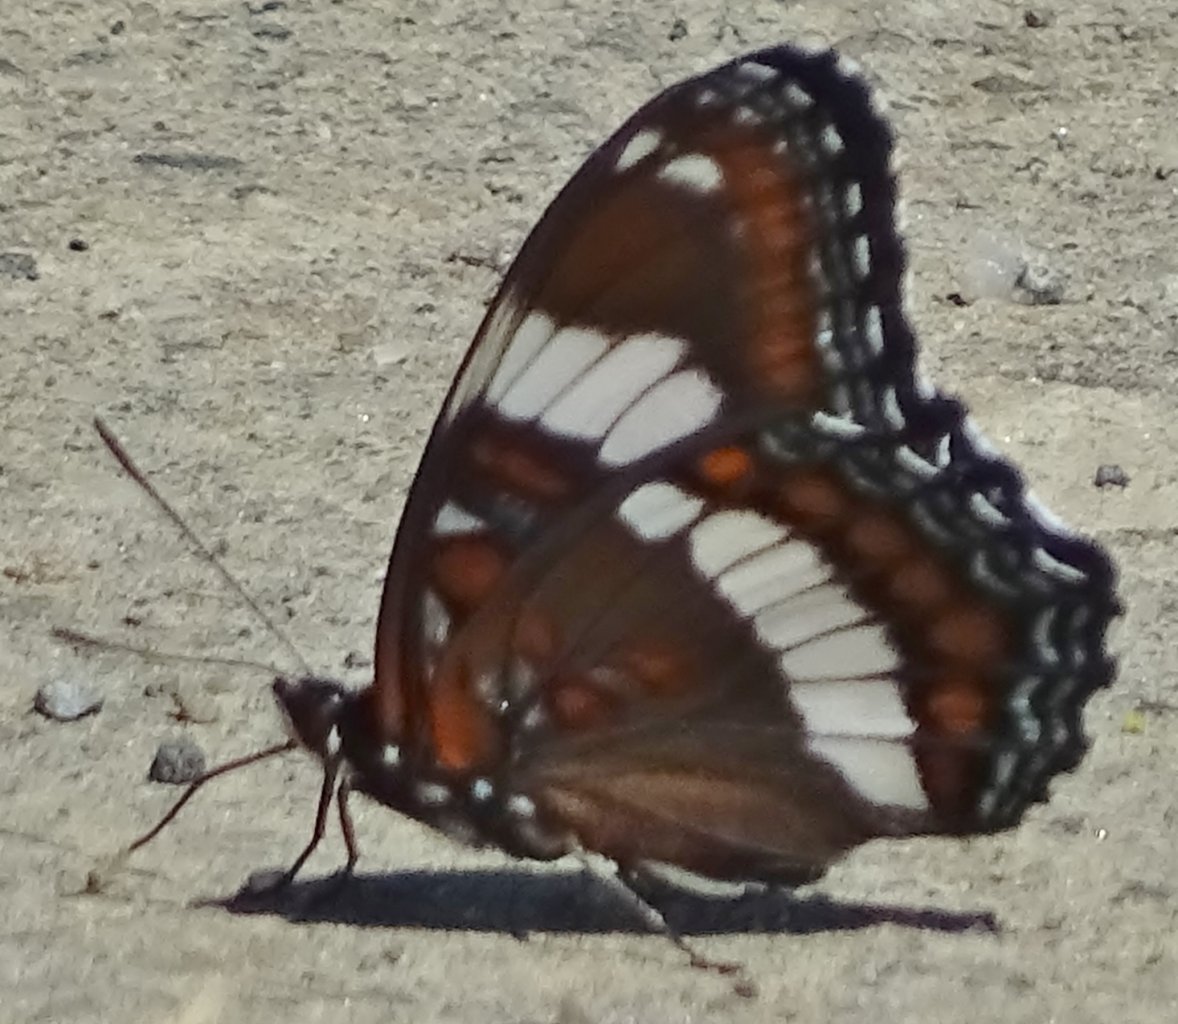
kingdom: Animalia
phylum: Arthropoda
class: Insecta
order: Lepidoptera
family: Nymphalidae
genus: Limenitis
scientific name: Limenitis arthemis
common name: Red-spotted Admiral
